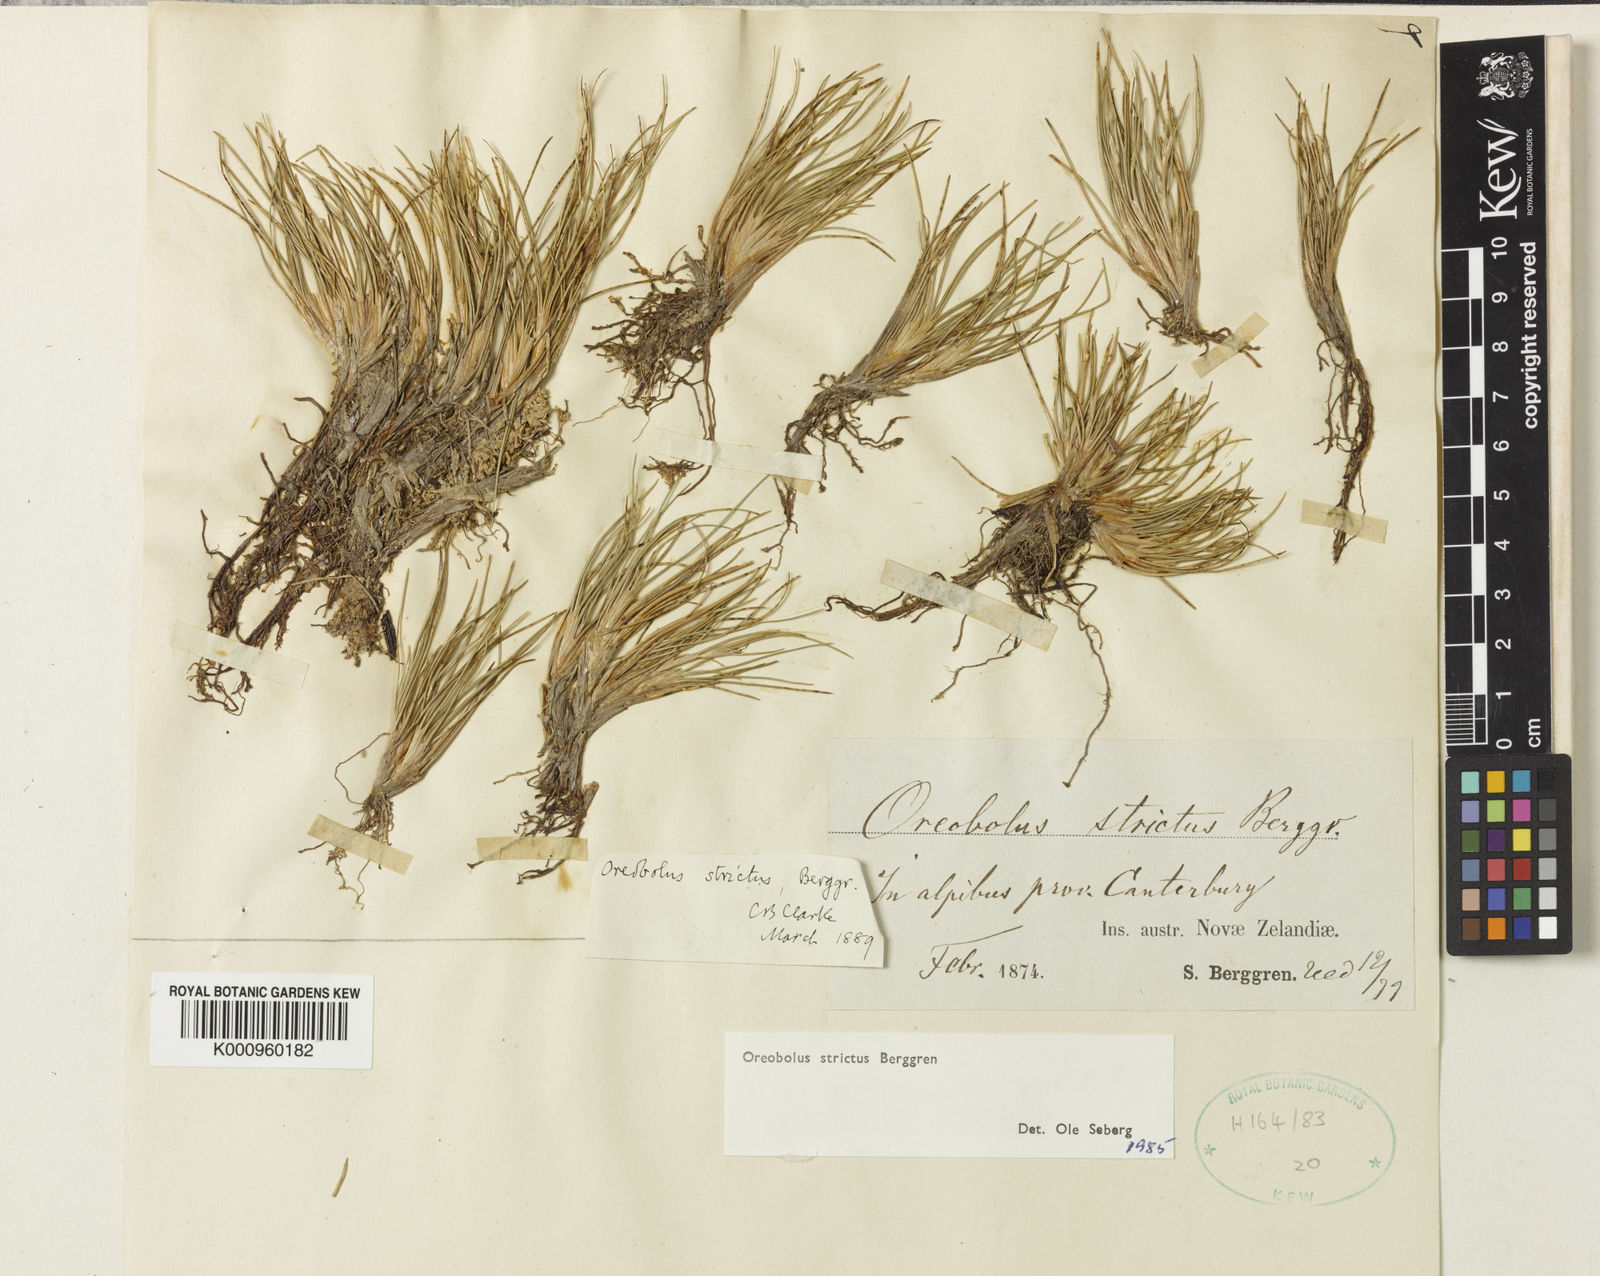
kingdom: Plantae
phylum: Tracheophyta
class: Liliopsida
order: Poales
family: Cyperaceae
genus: Oreobolus
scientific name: Oreobolus strictus
